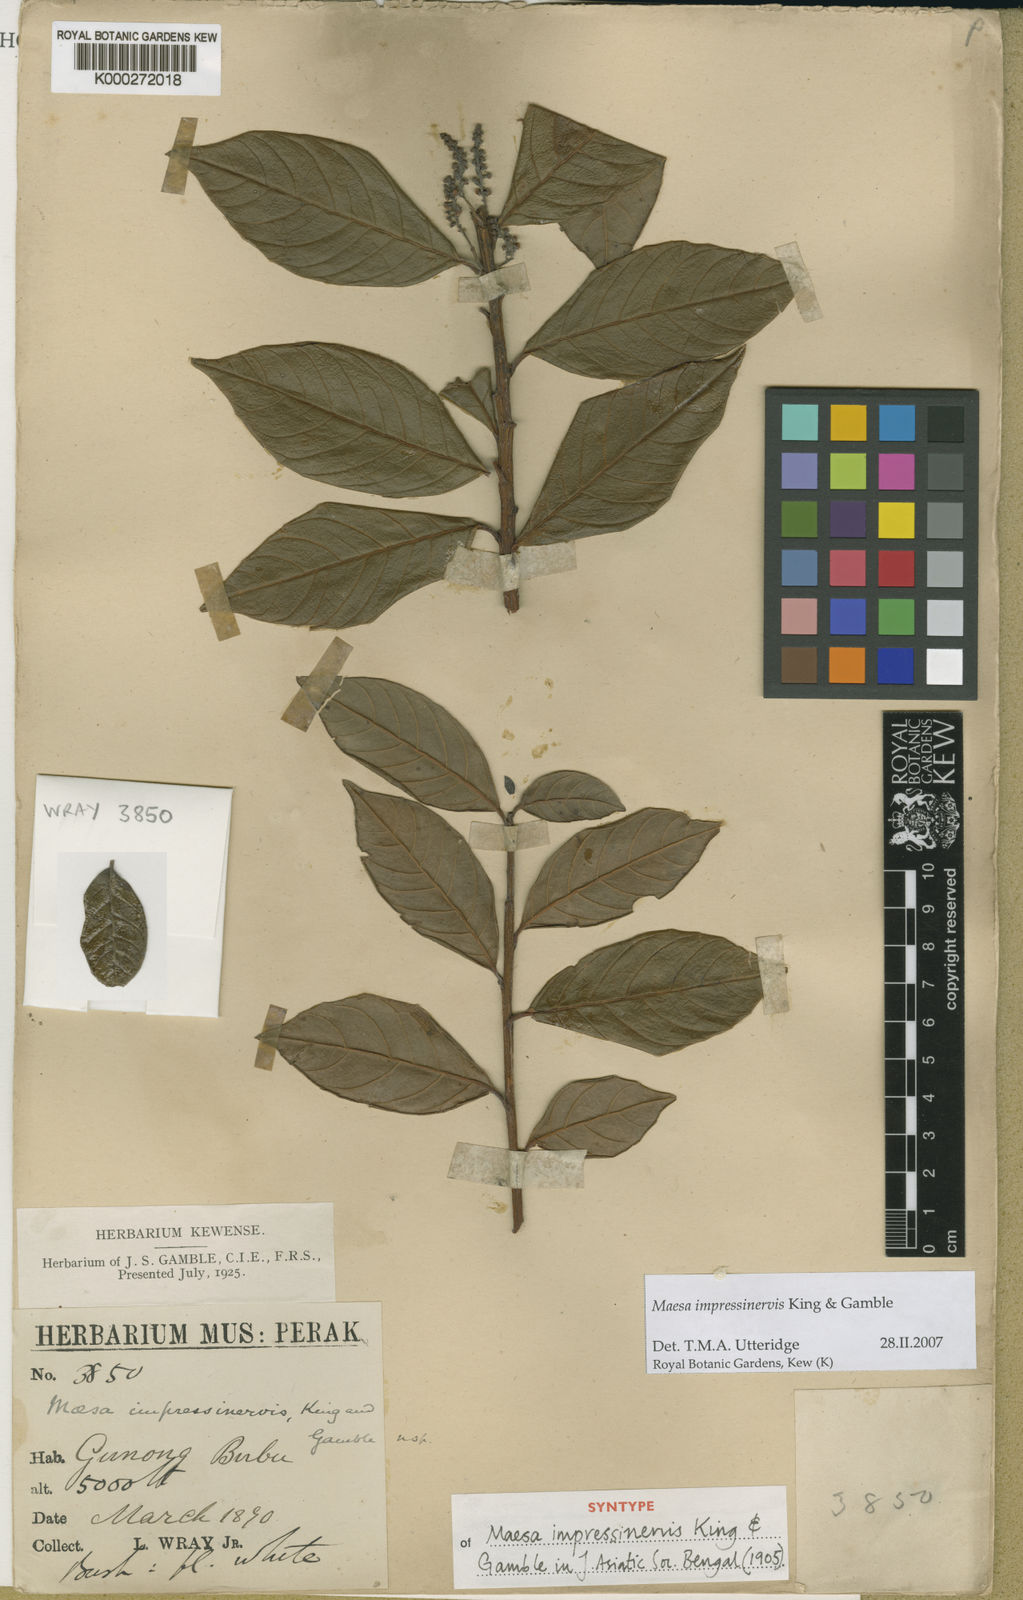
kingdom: Plantae
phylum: Tracheophyta
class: Magnoliopsida
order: Ericales
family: Primulaceae
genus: Maesa
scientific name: Maesa impressinervis
